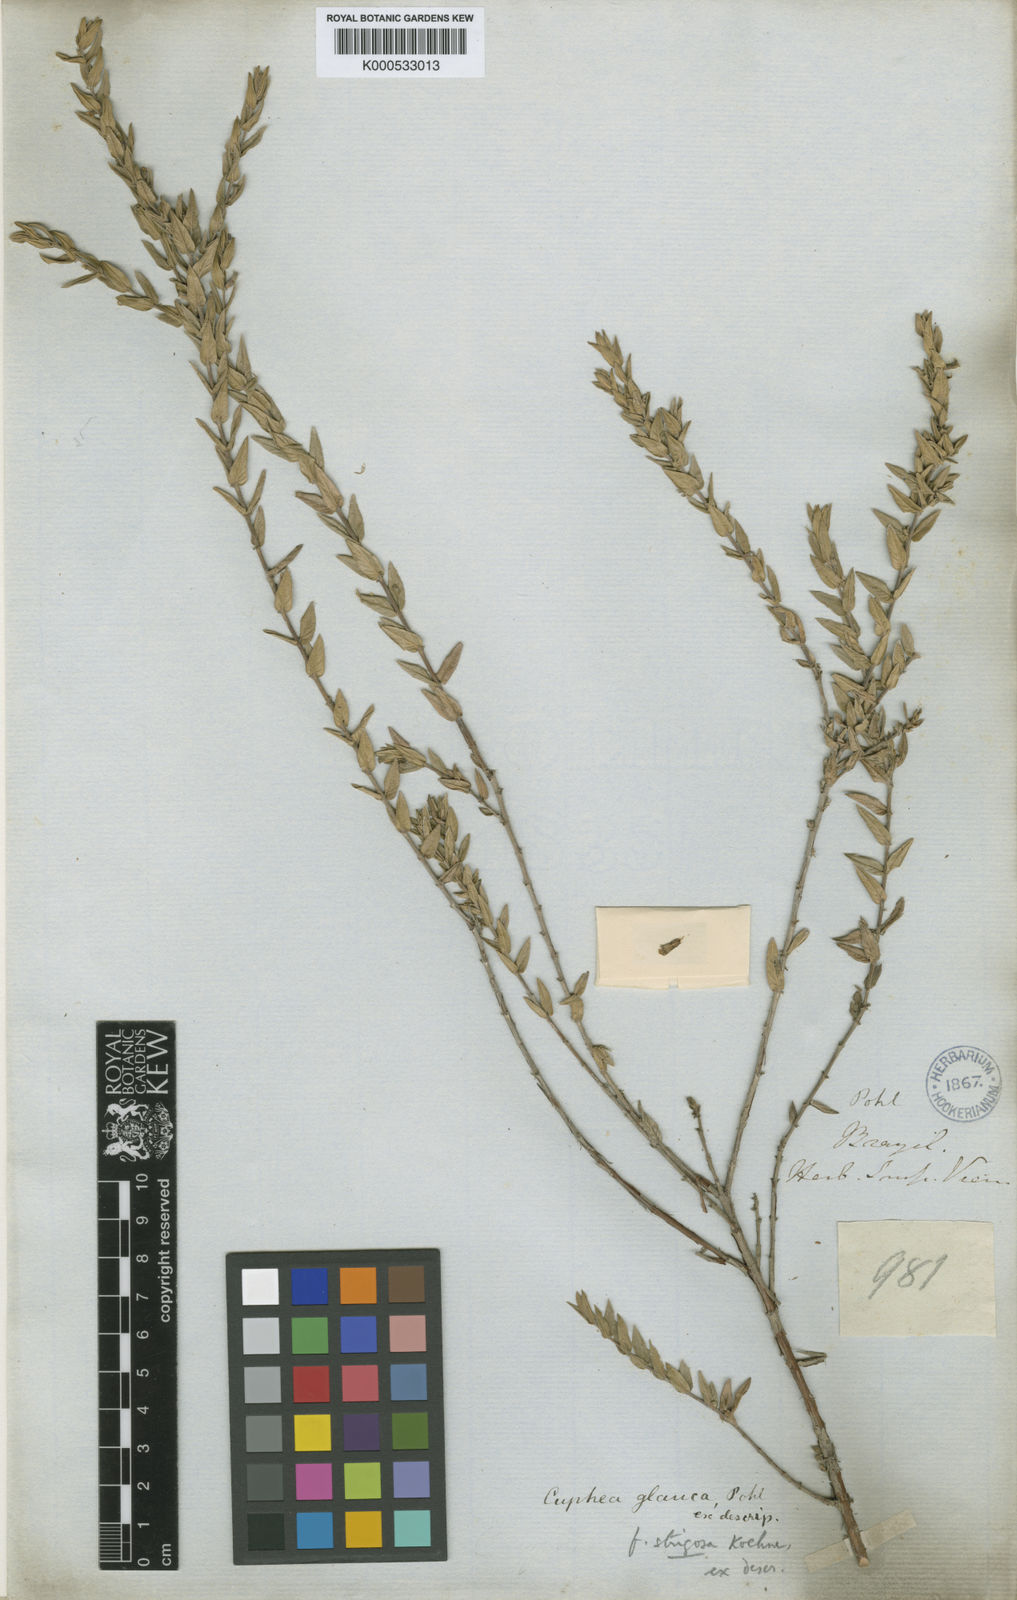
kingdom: Plantae
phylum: Tracheophyta
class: Magnoliopsida
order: Myrtales
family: Lythraceae
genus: Cuphea
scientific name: Cuphea
